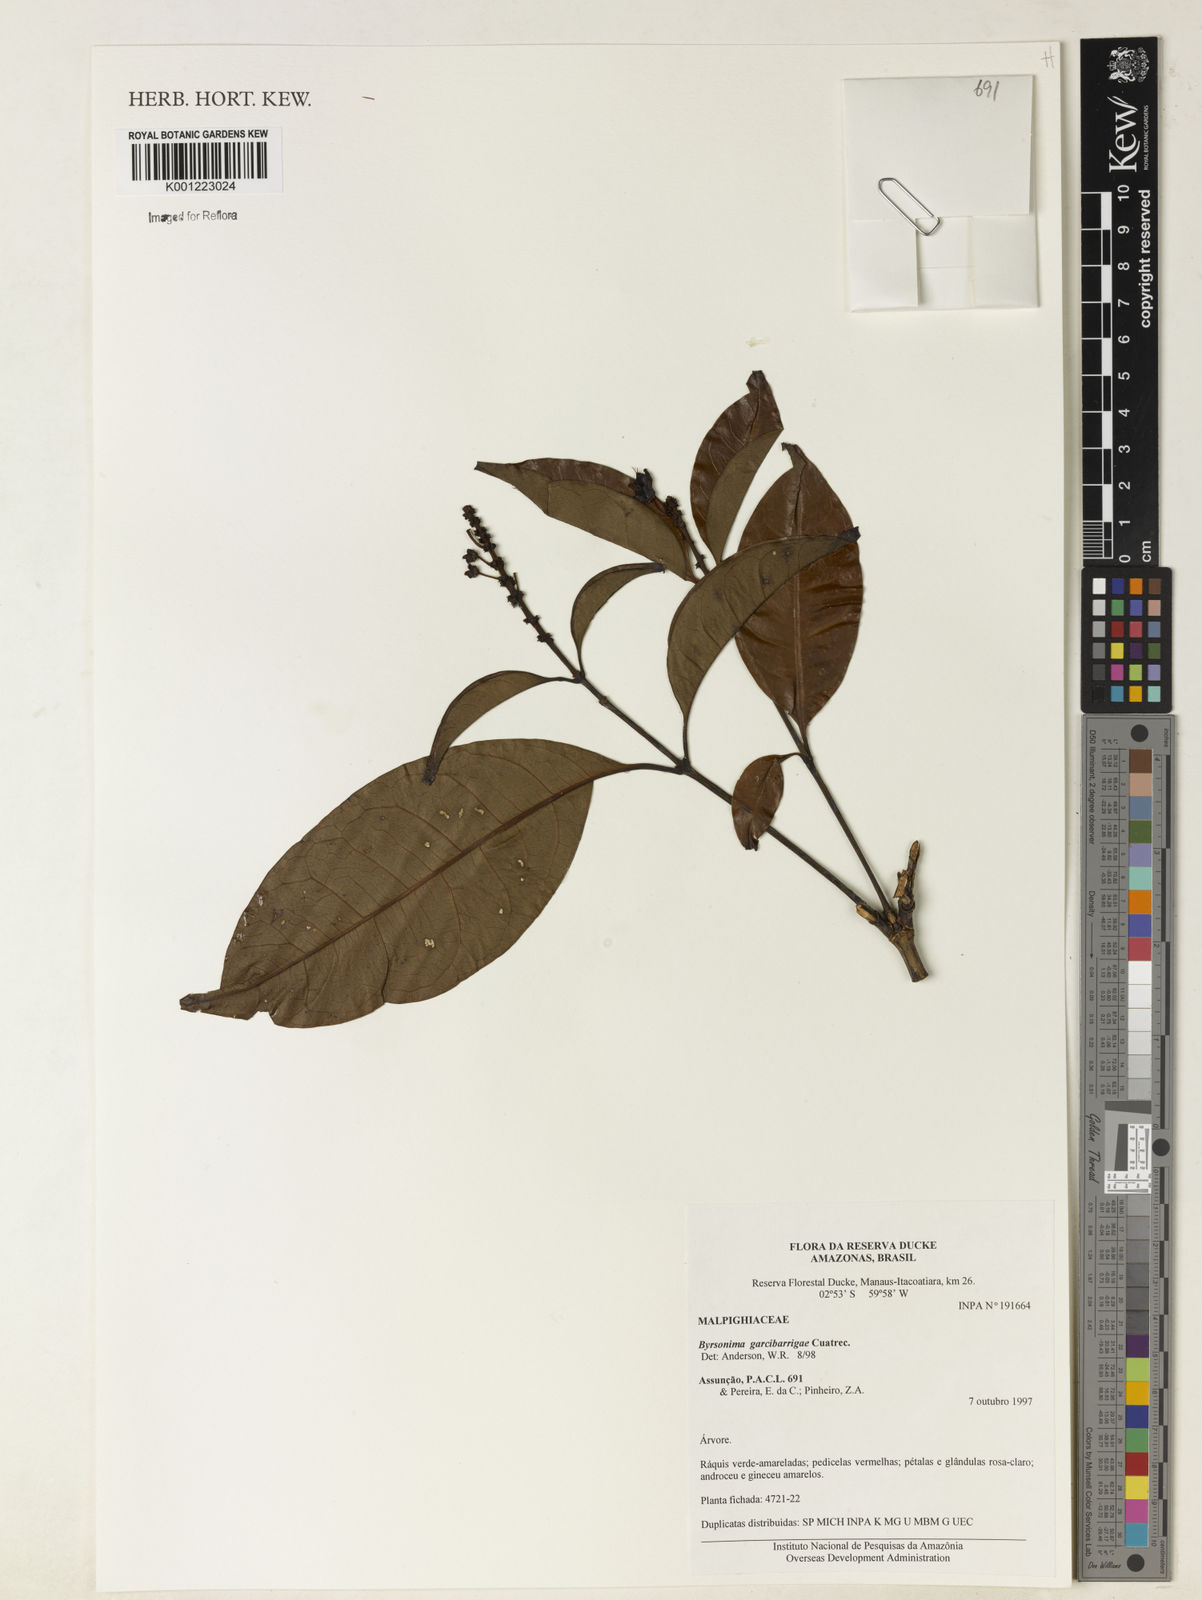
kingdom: Plantae
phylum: Tracheophyta
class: Magnoliopsida
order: Malpighiales
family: Malpighiaceae
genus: Byrsonima
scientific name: Byrsonima garcibarrigae
